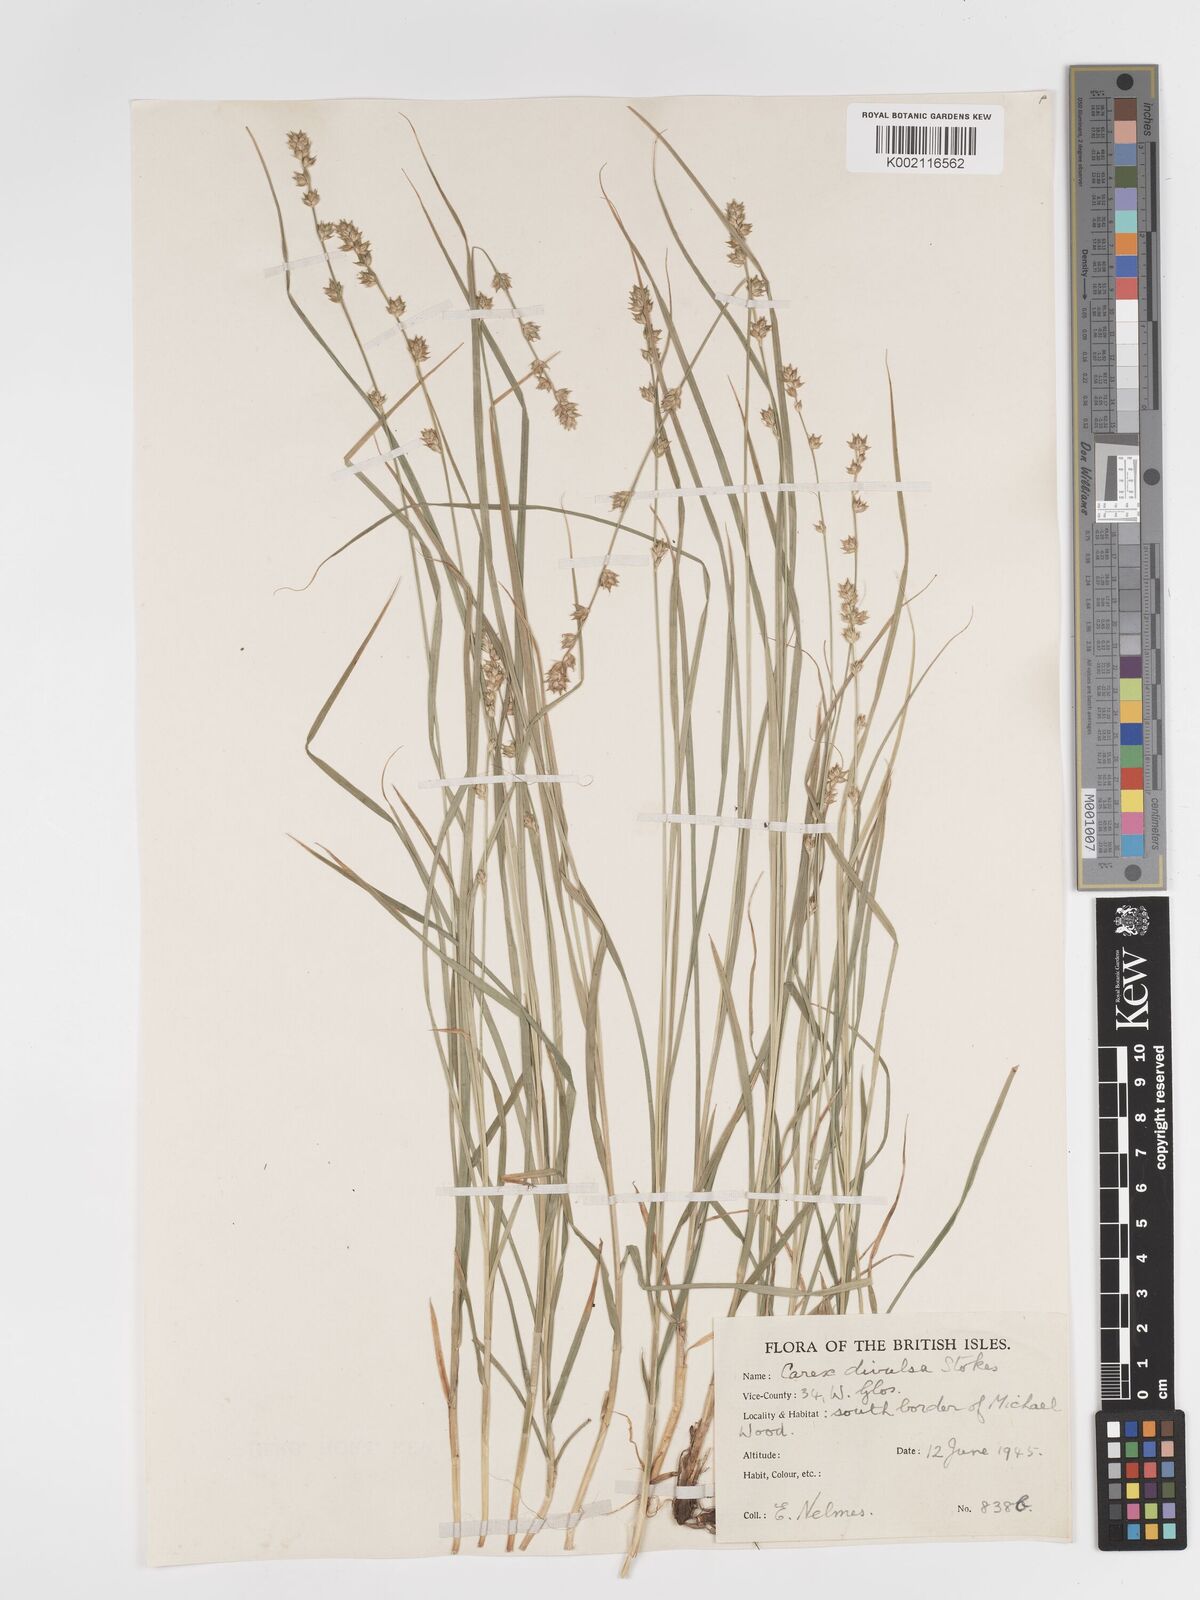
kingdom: Plantae
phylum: Tracheophyta
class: Liliopsida
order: Poales
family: Cyperaceae
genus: Carex
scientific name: Carex divulsa
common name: Grassland sedge
